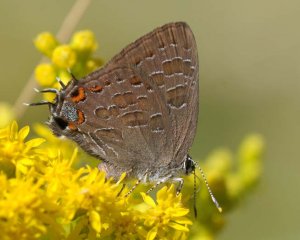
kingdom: Animalia
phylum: Arthropoda
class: Insecta
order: Lepidoptera
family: Lycaenidae
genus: Satyrium
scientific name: Satyrium liparops
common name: Striped Hairstreak
